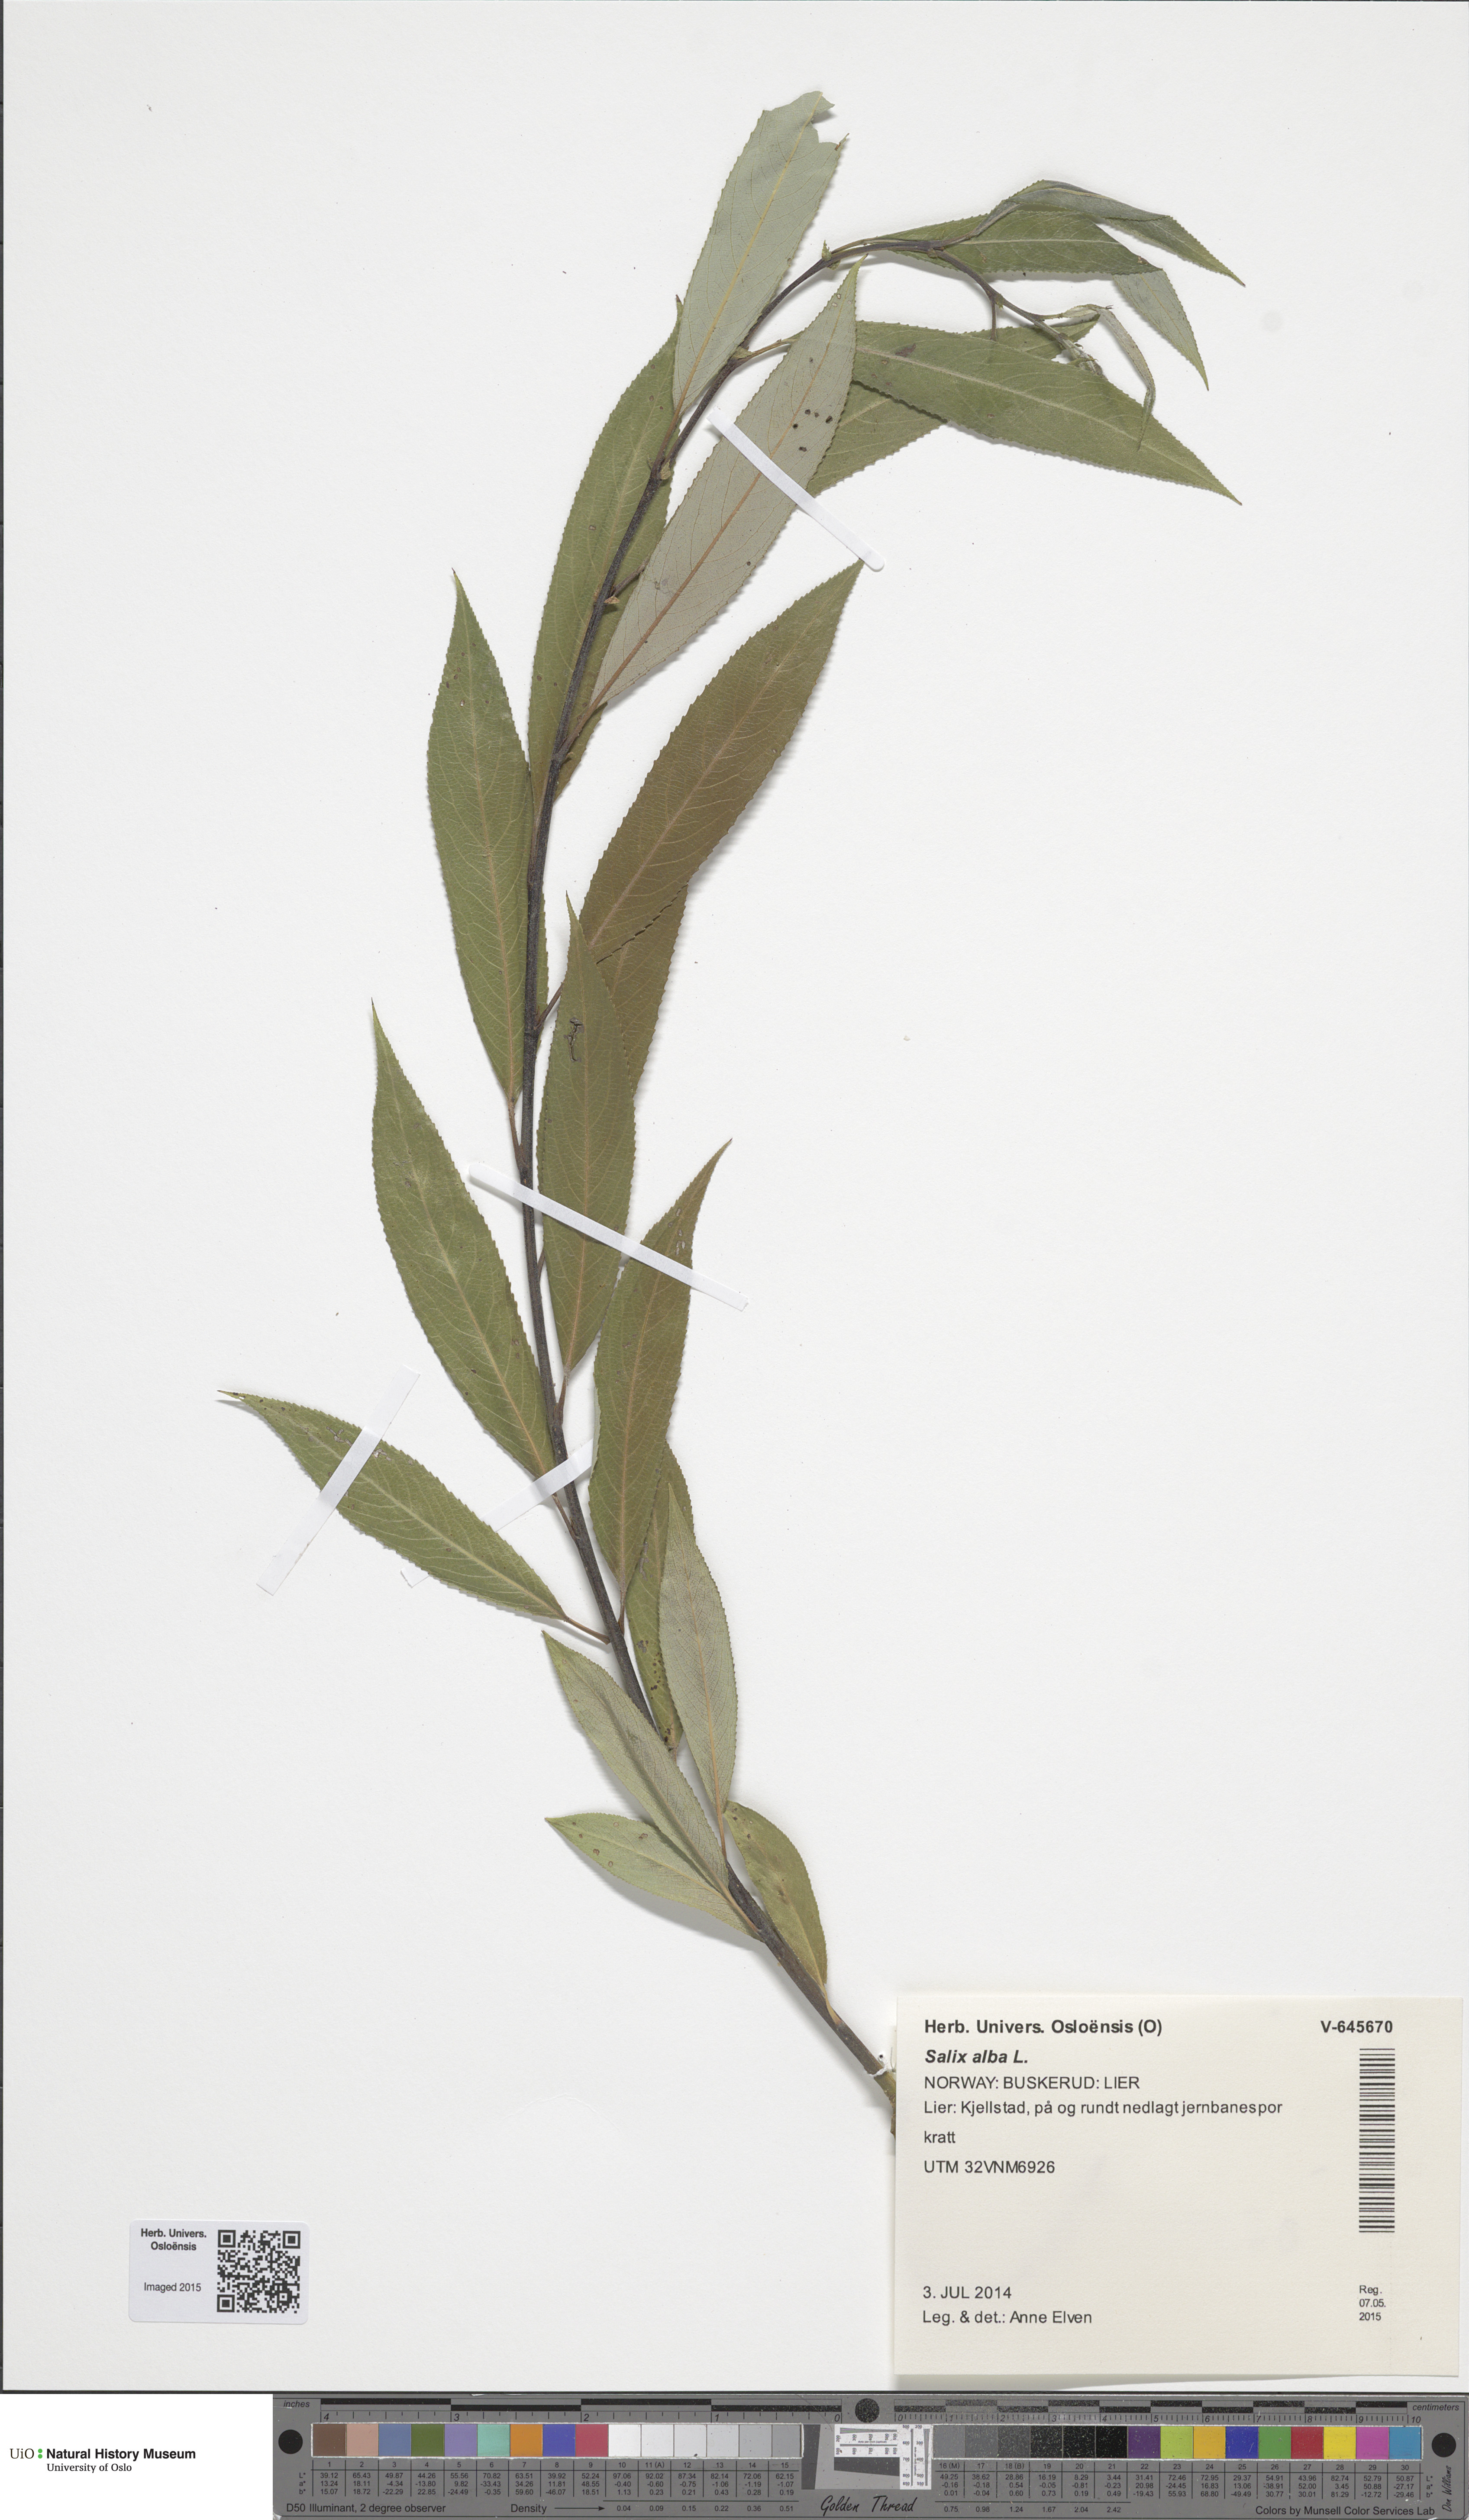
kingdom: Plantae
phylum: Tracheophyta
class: Magnoliopsida
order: Malpighiales
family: Salicaceae
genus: Salix
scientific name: Salix fragilis
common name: Crack willow
